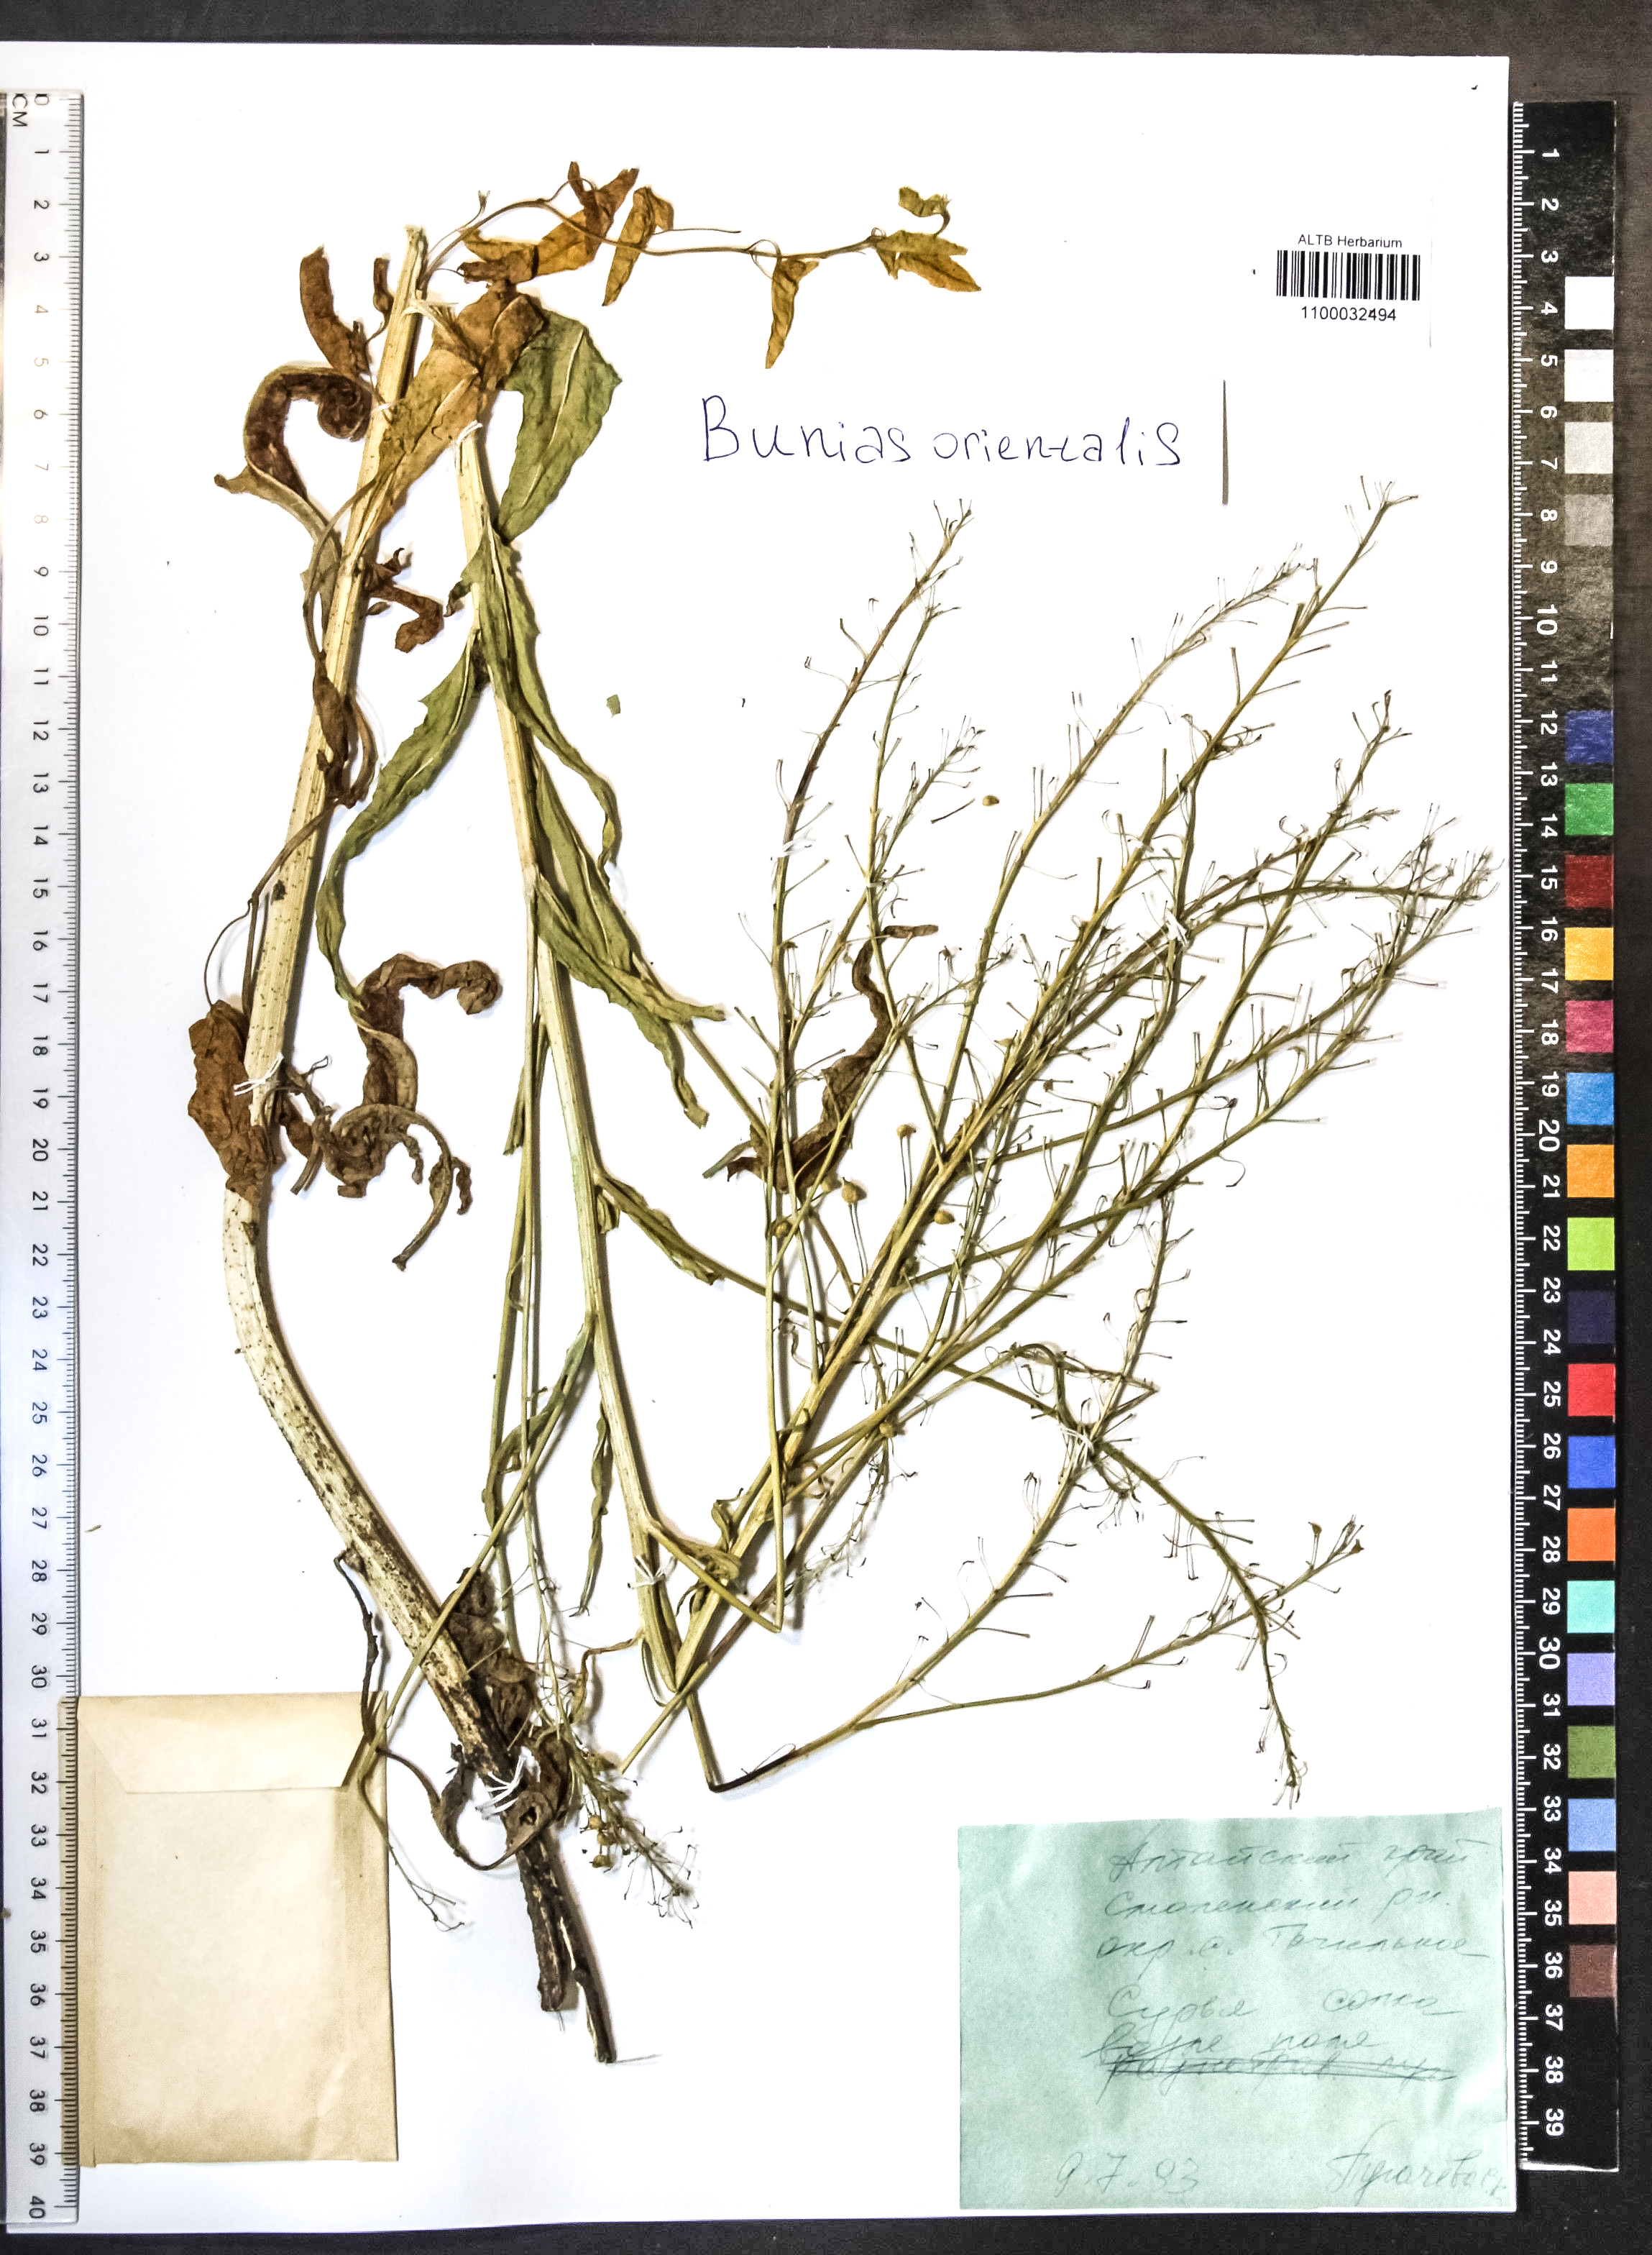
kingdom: Plantae
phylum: Tracheophyta
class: Magnoliopsida
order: Brassicales
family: Brassicaceae
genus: Bunias
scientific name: Bunias orientalis
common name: Warty-cabbage
